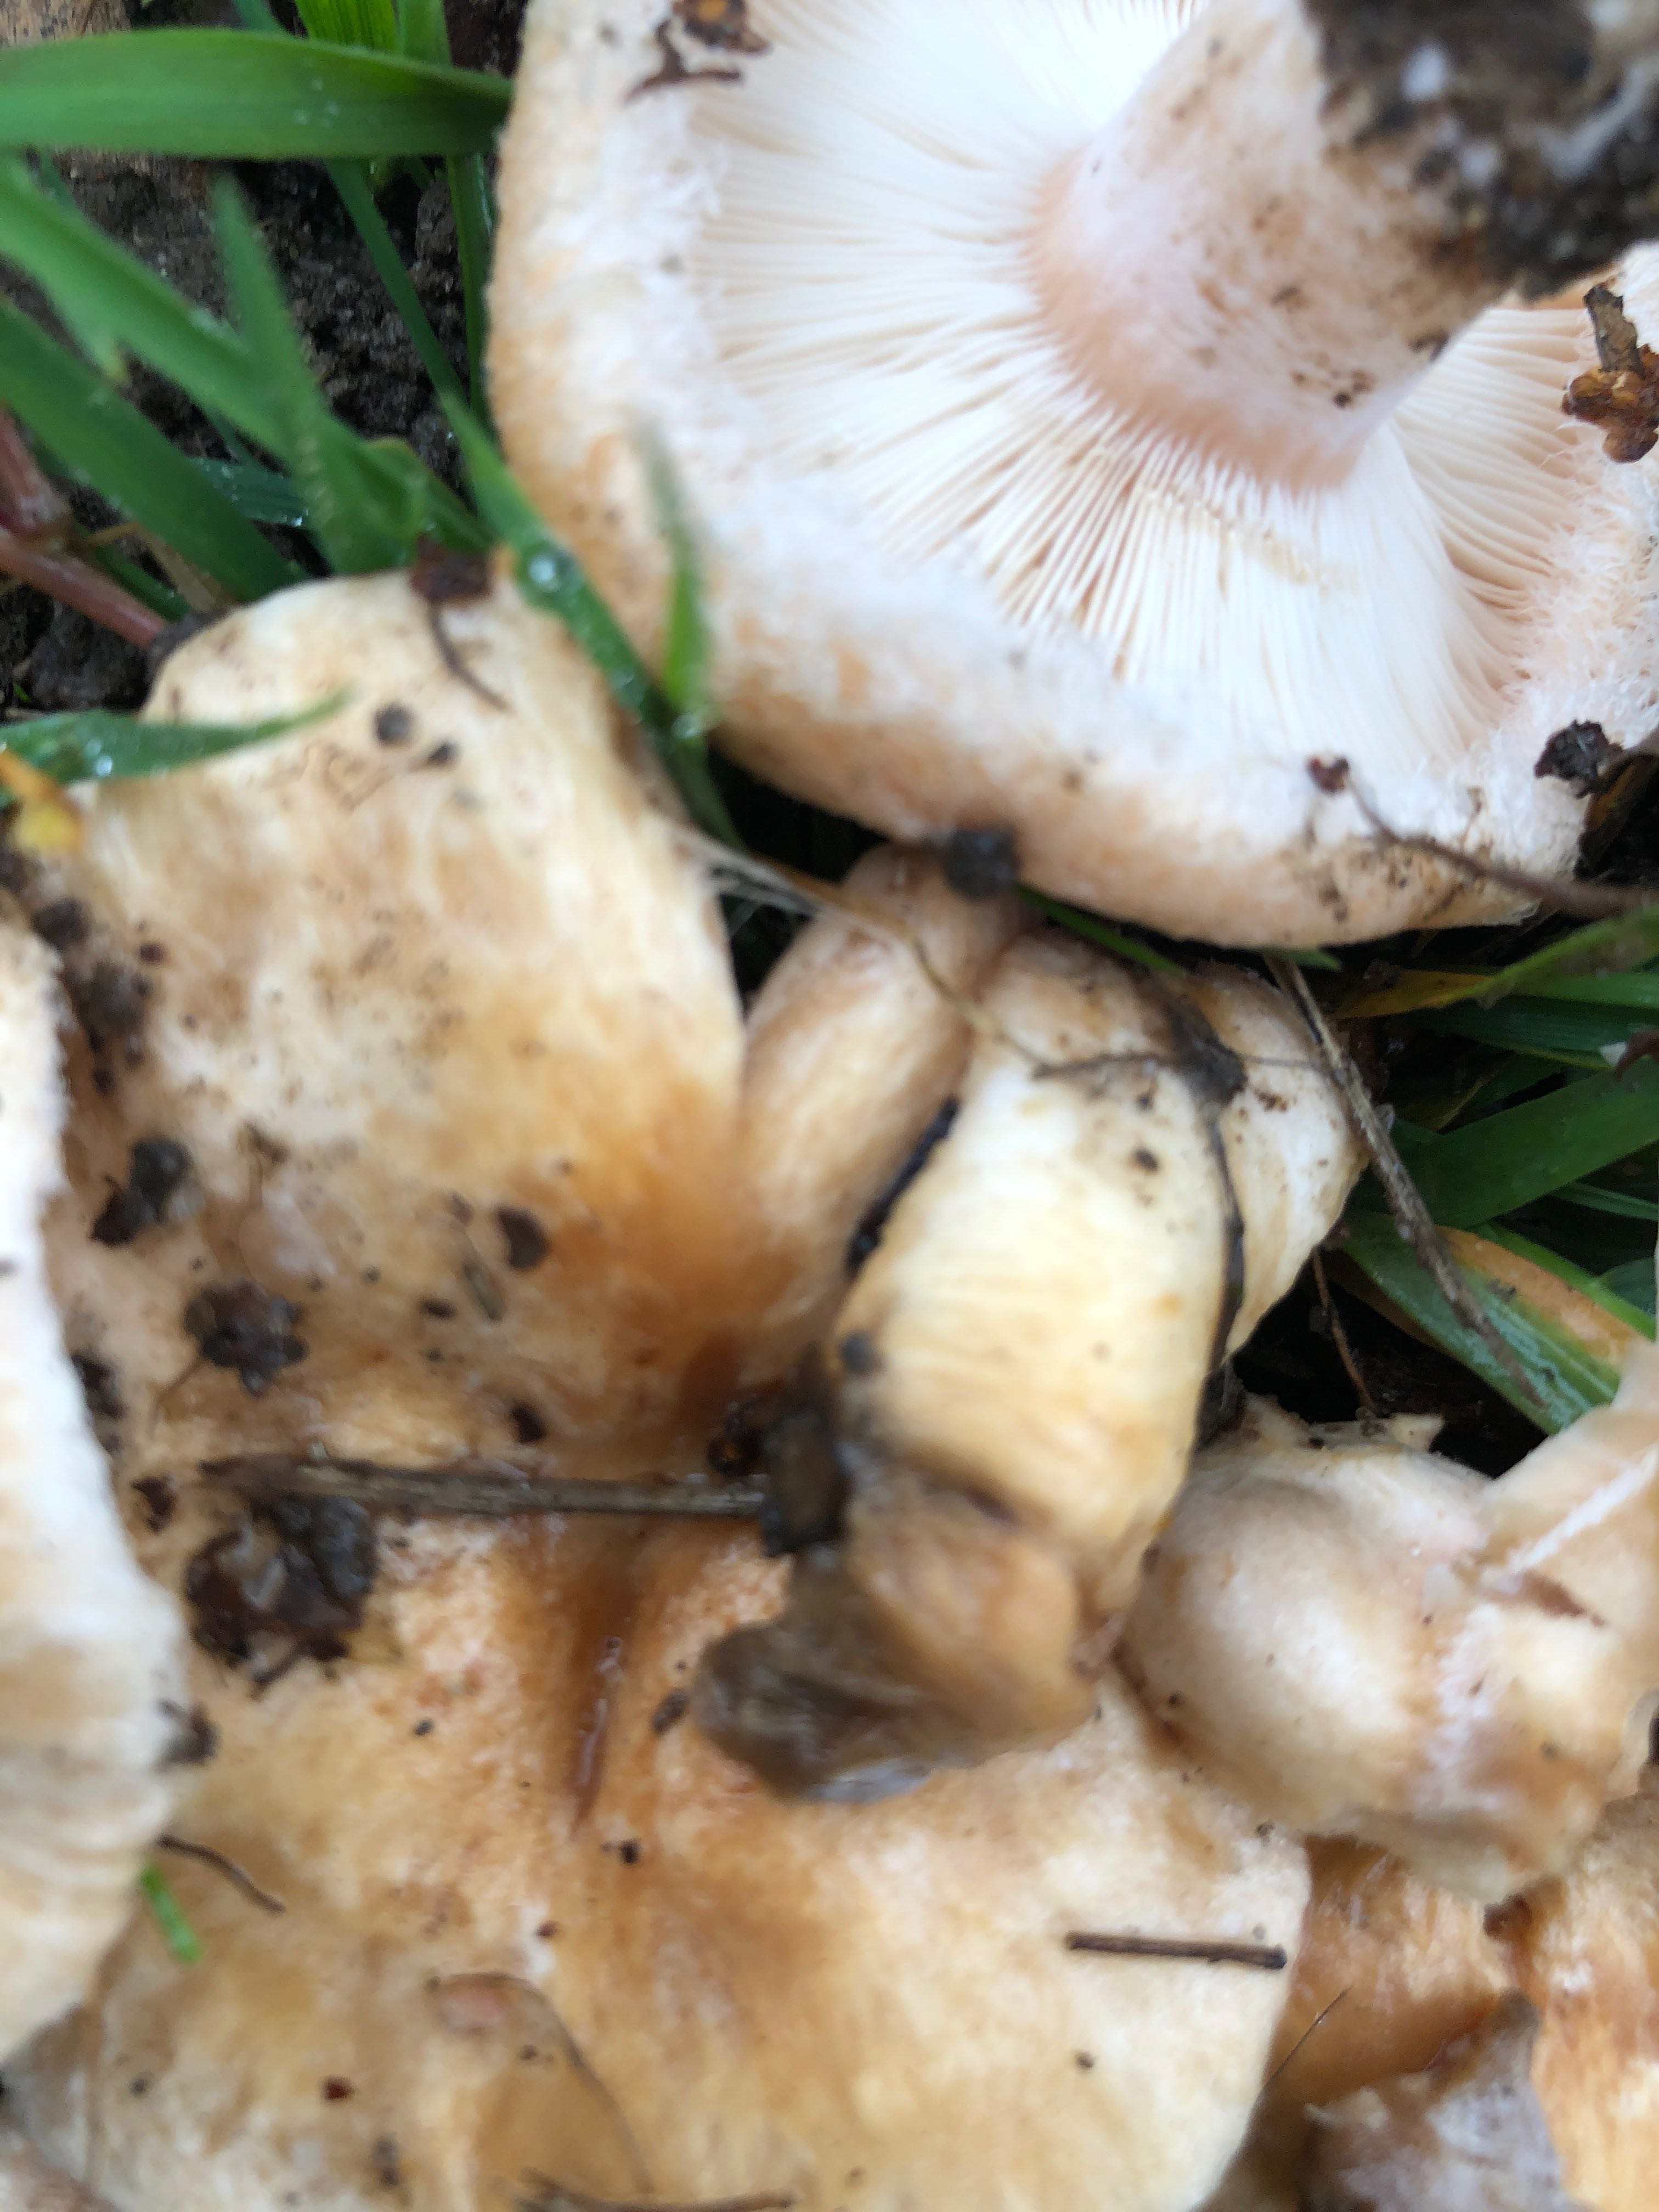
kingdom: Fungi
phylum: Basidiomycota
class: Agaricomycetes
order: Russulales
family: Russulaceae
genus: Lactarius
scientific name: Lactarius pubescens
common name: dunet mælkehat
